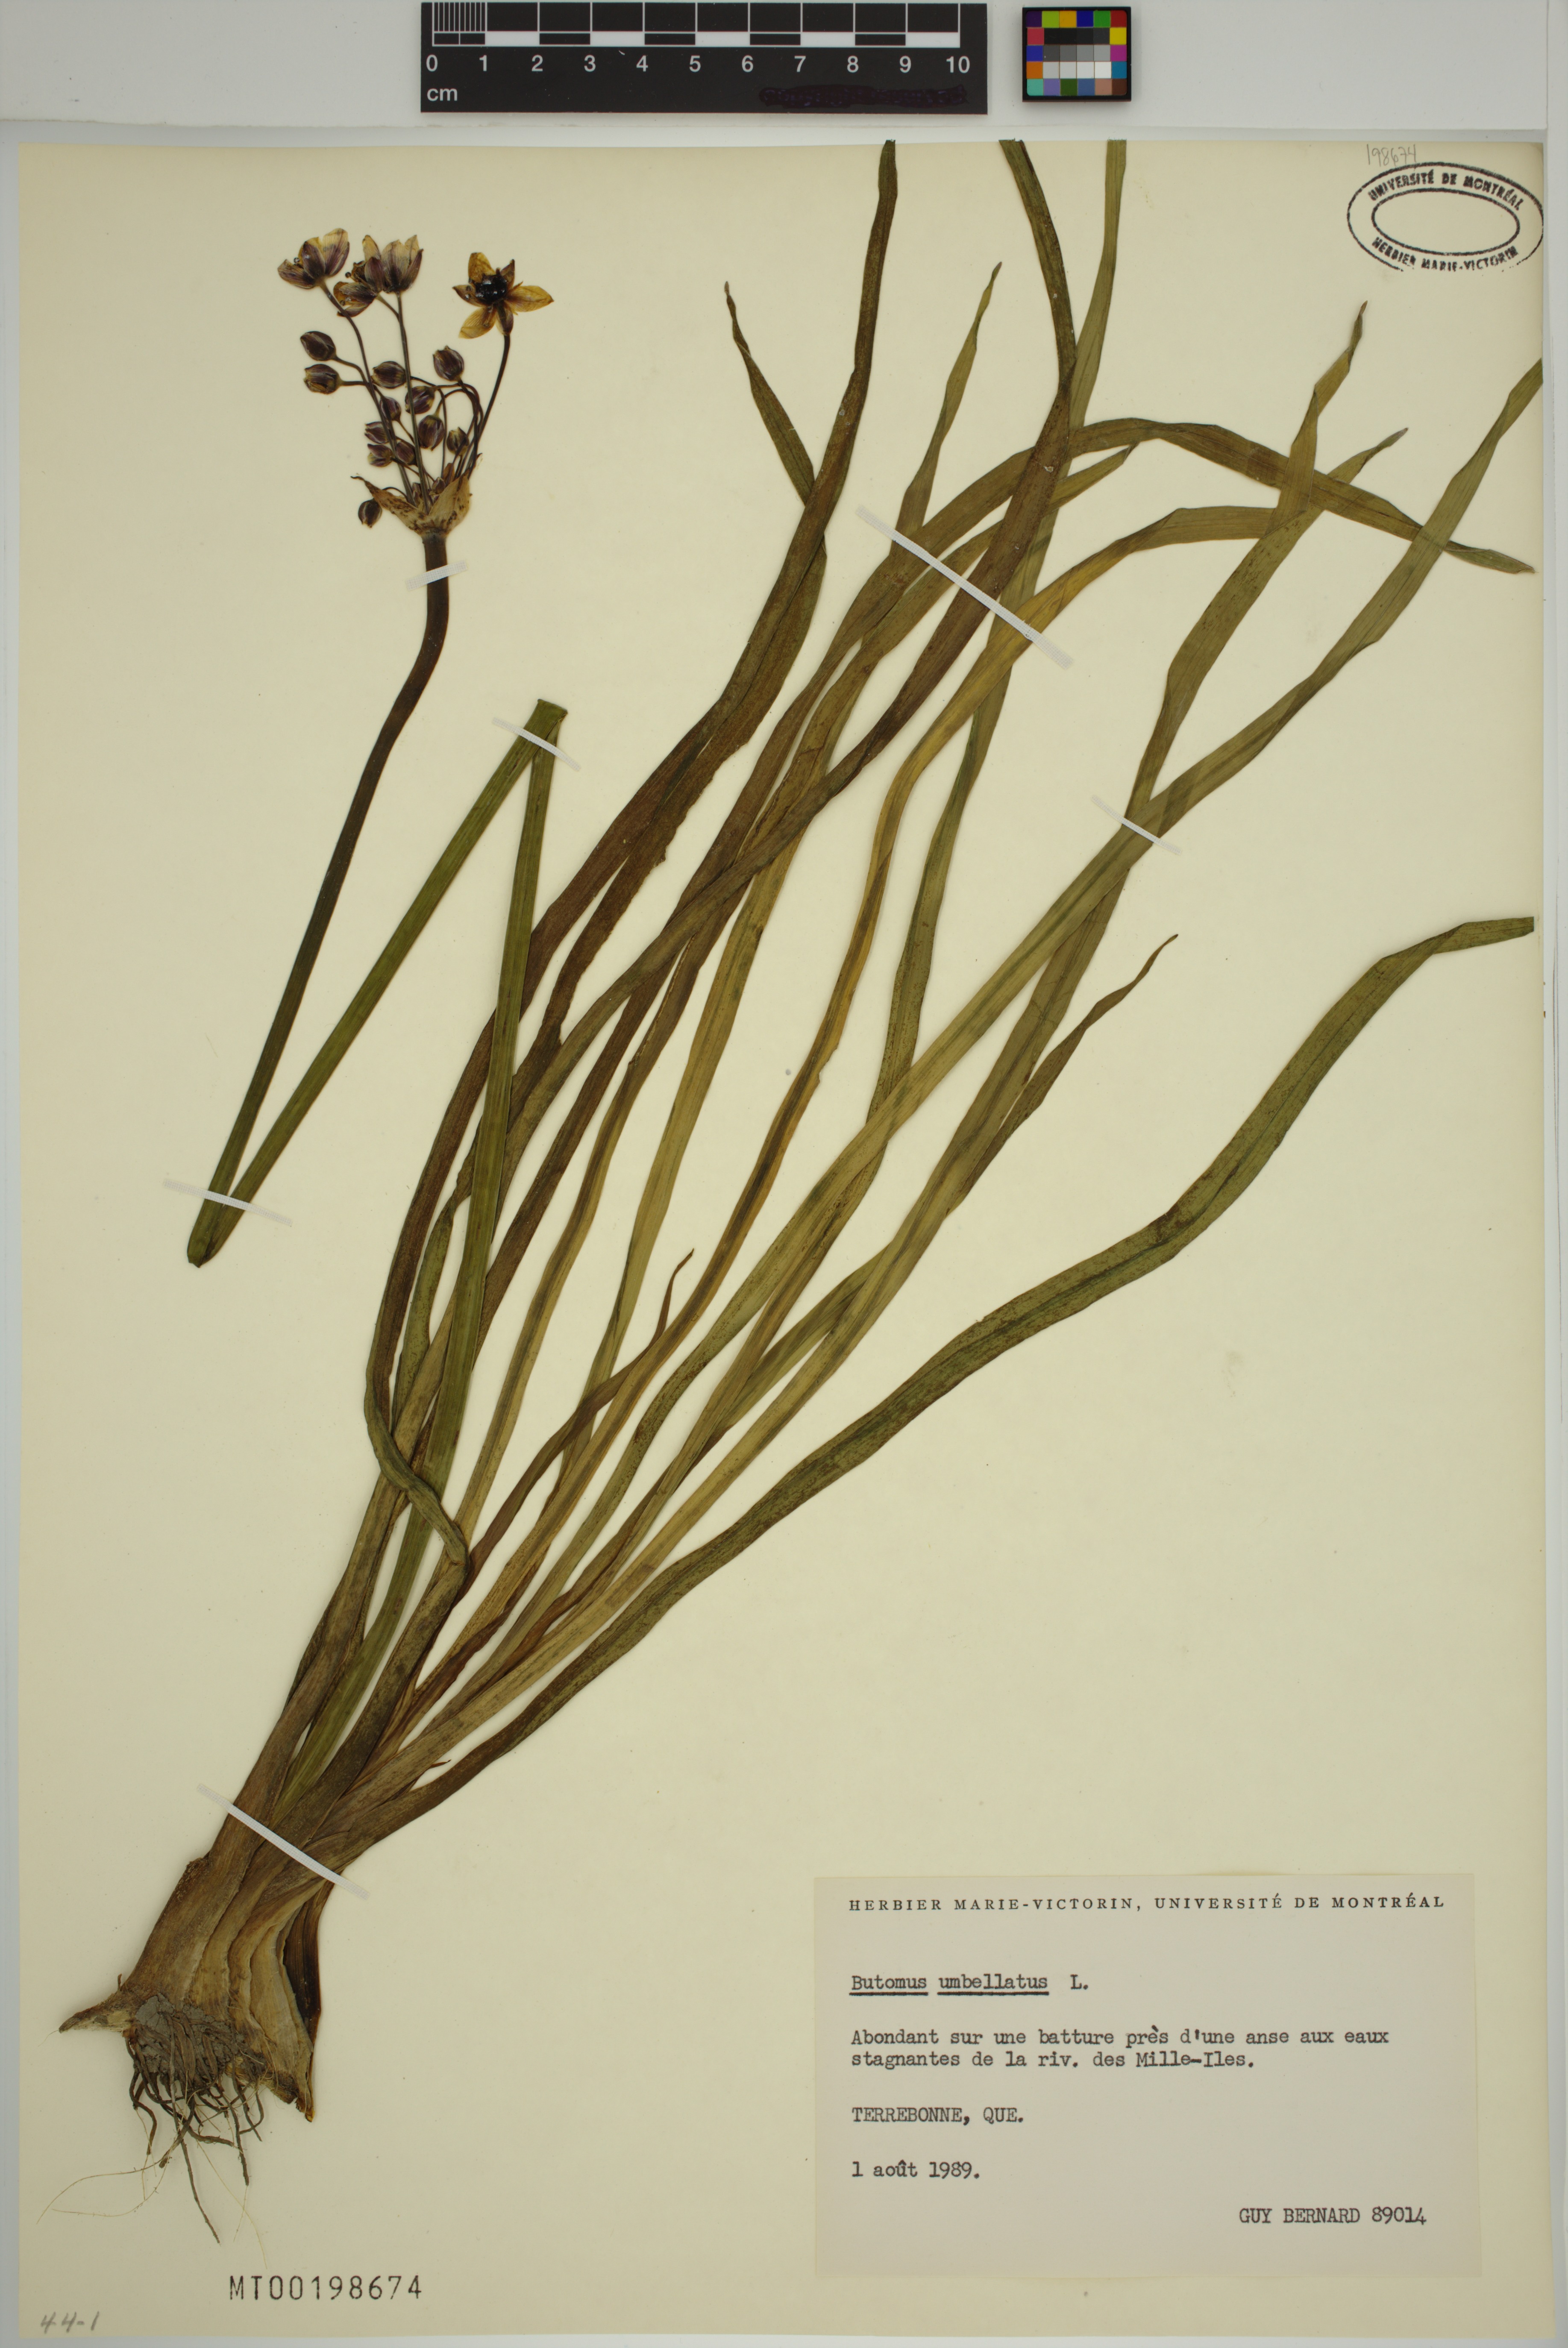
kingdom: Plantae
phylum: Tracheophyta
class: Liliopsida
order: Alismatales
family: Butomaceae
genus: Butomus
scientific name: Butomus umbellatus
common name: Flowering-rush
